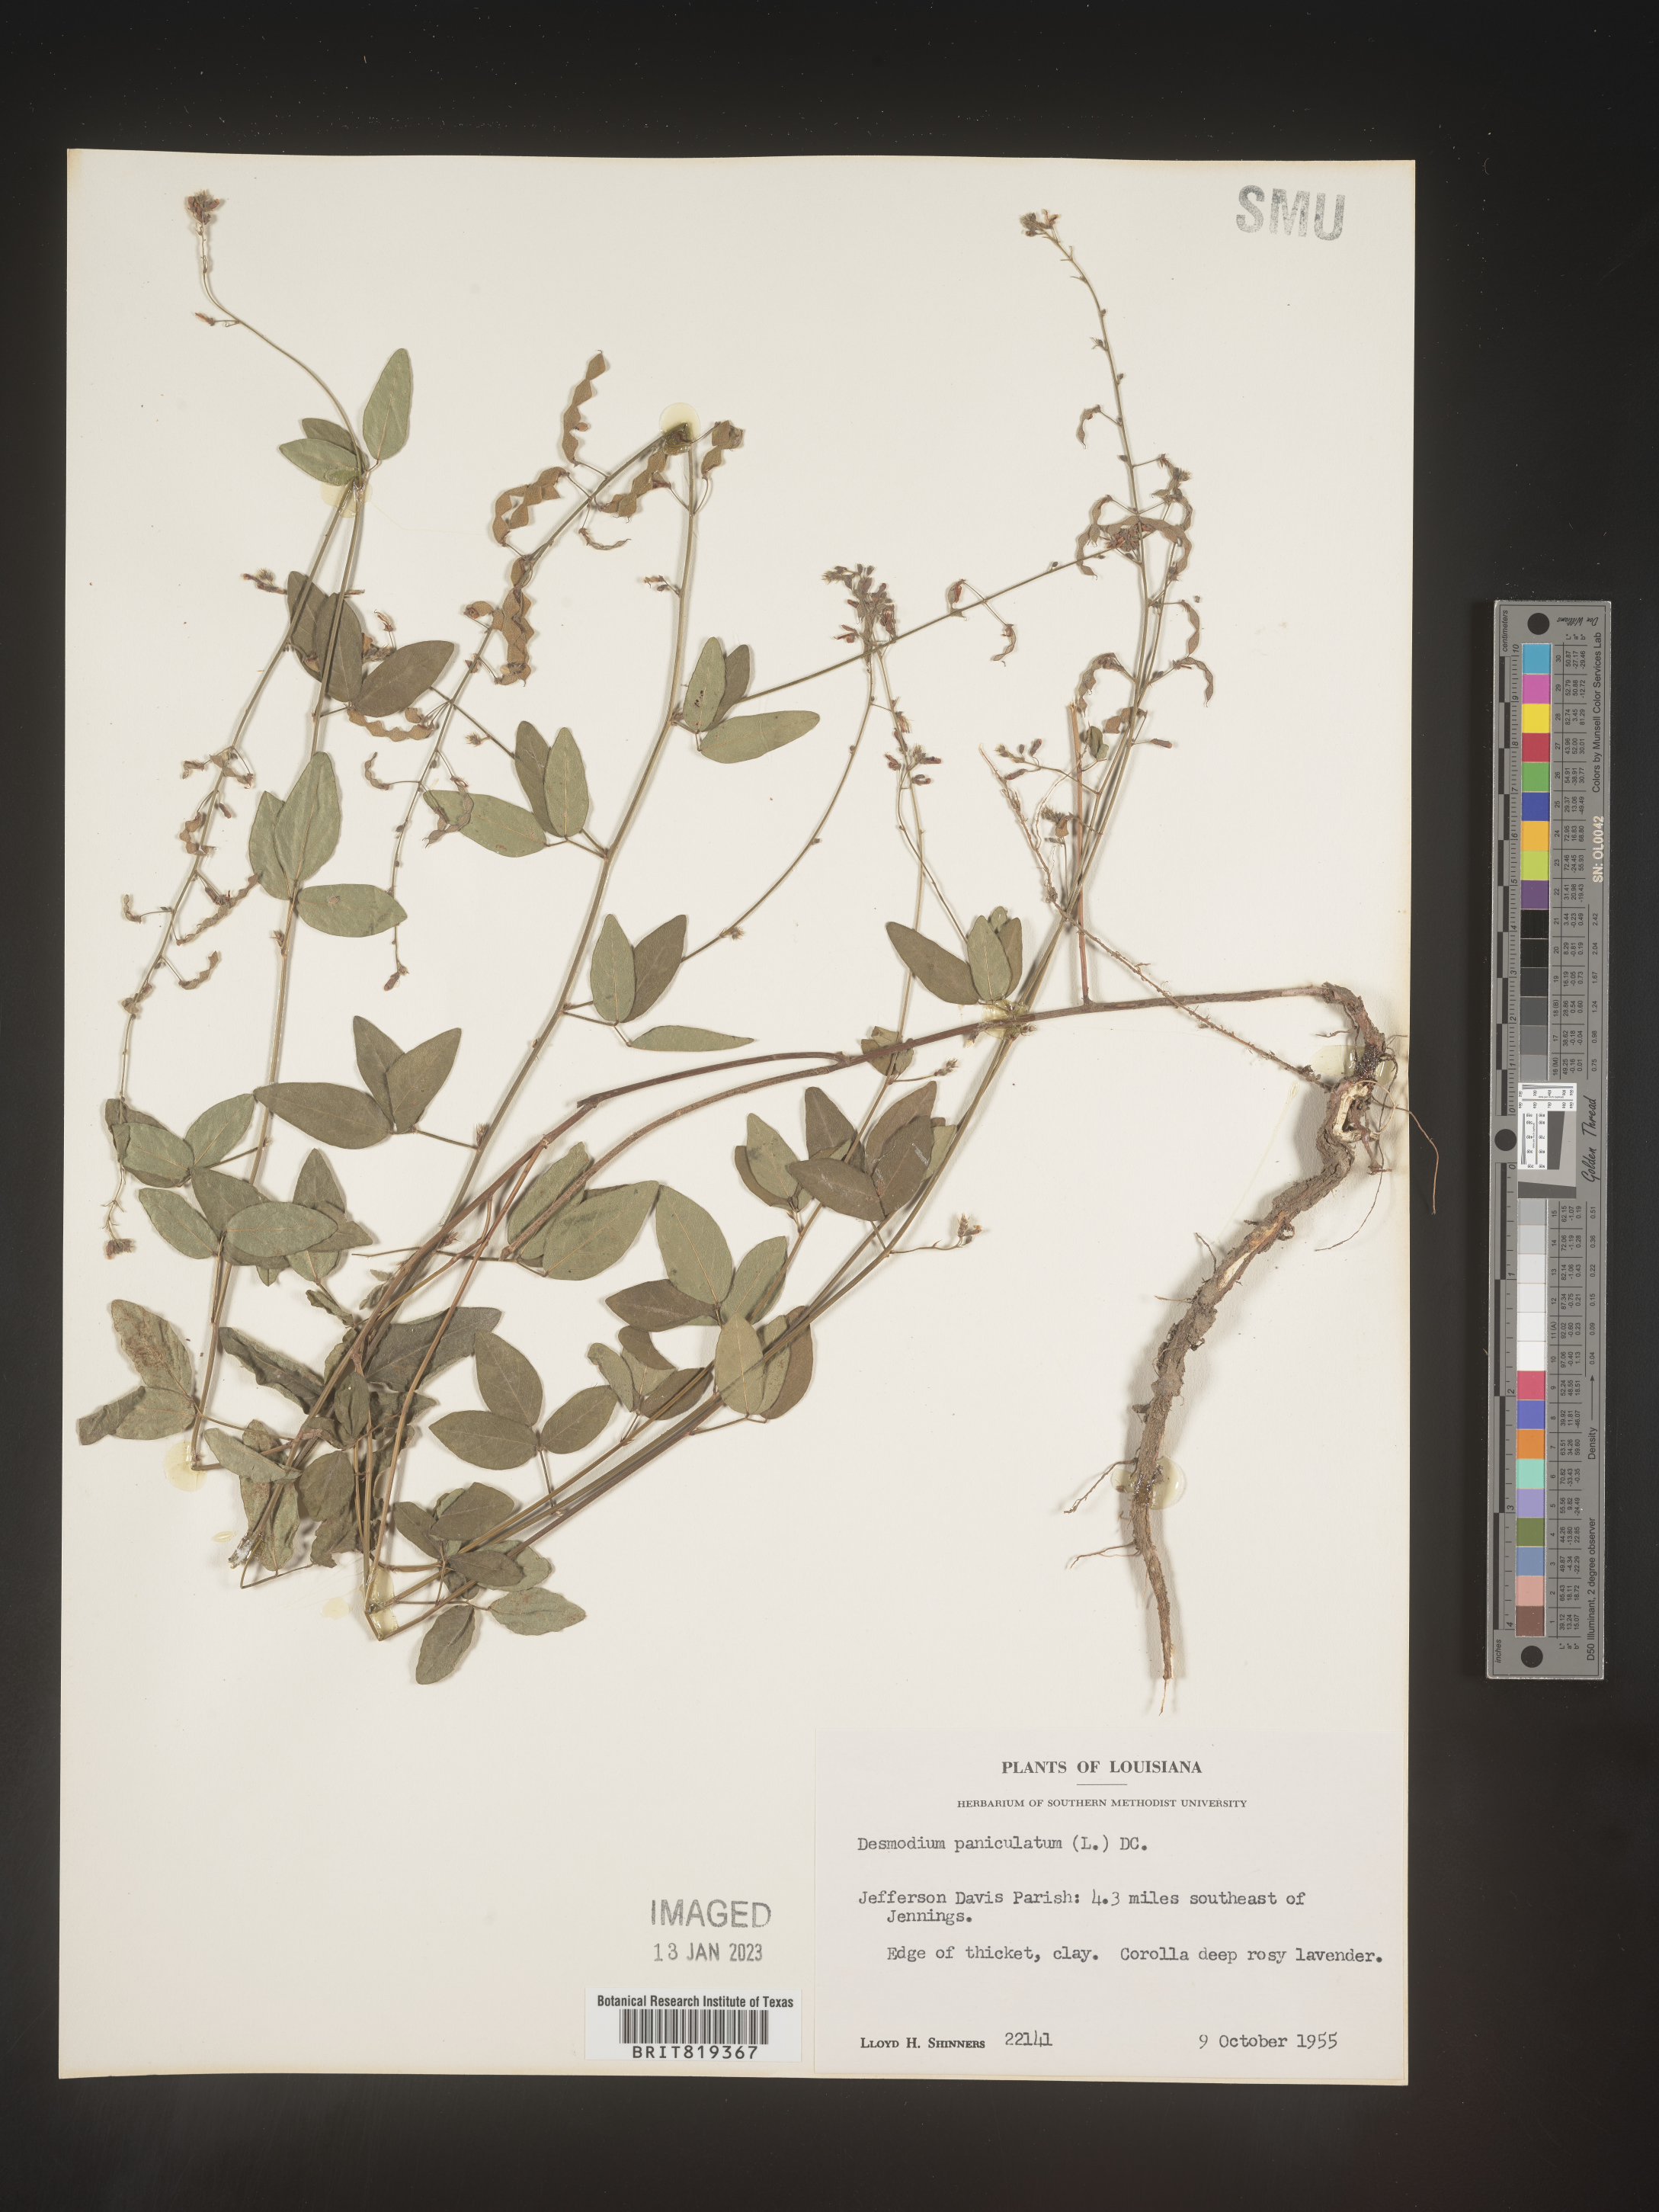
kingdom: Plantae
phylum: Tracheophyta
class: Magnoliopsida
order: Fabales
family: Fabaceae
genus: Desmodium
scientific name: Desmodium paniculatum
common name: Panicled tick-clover
